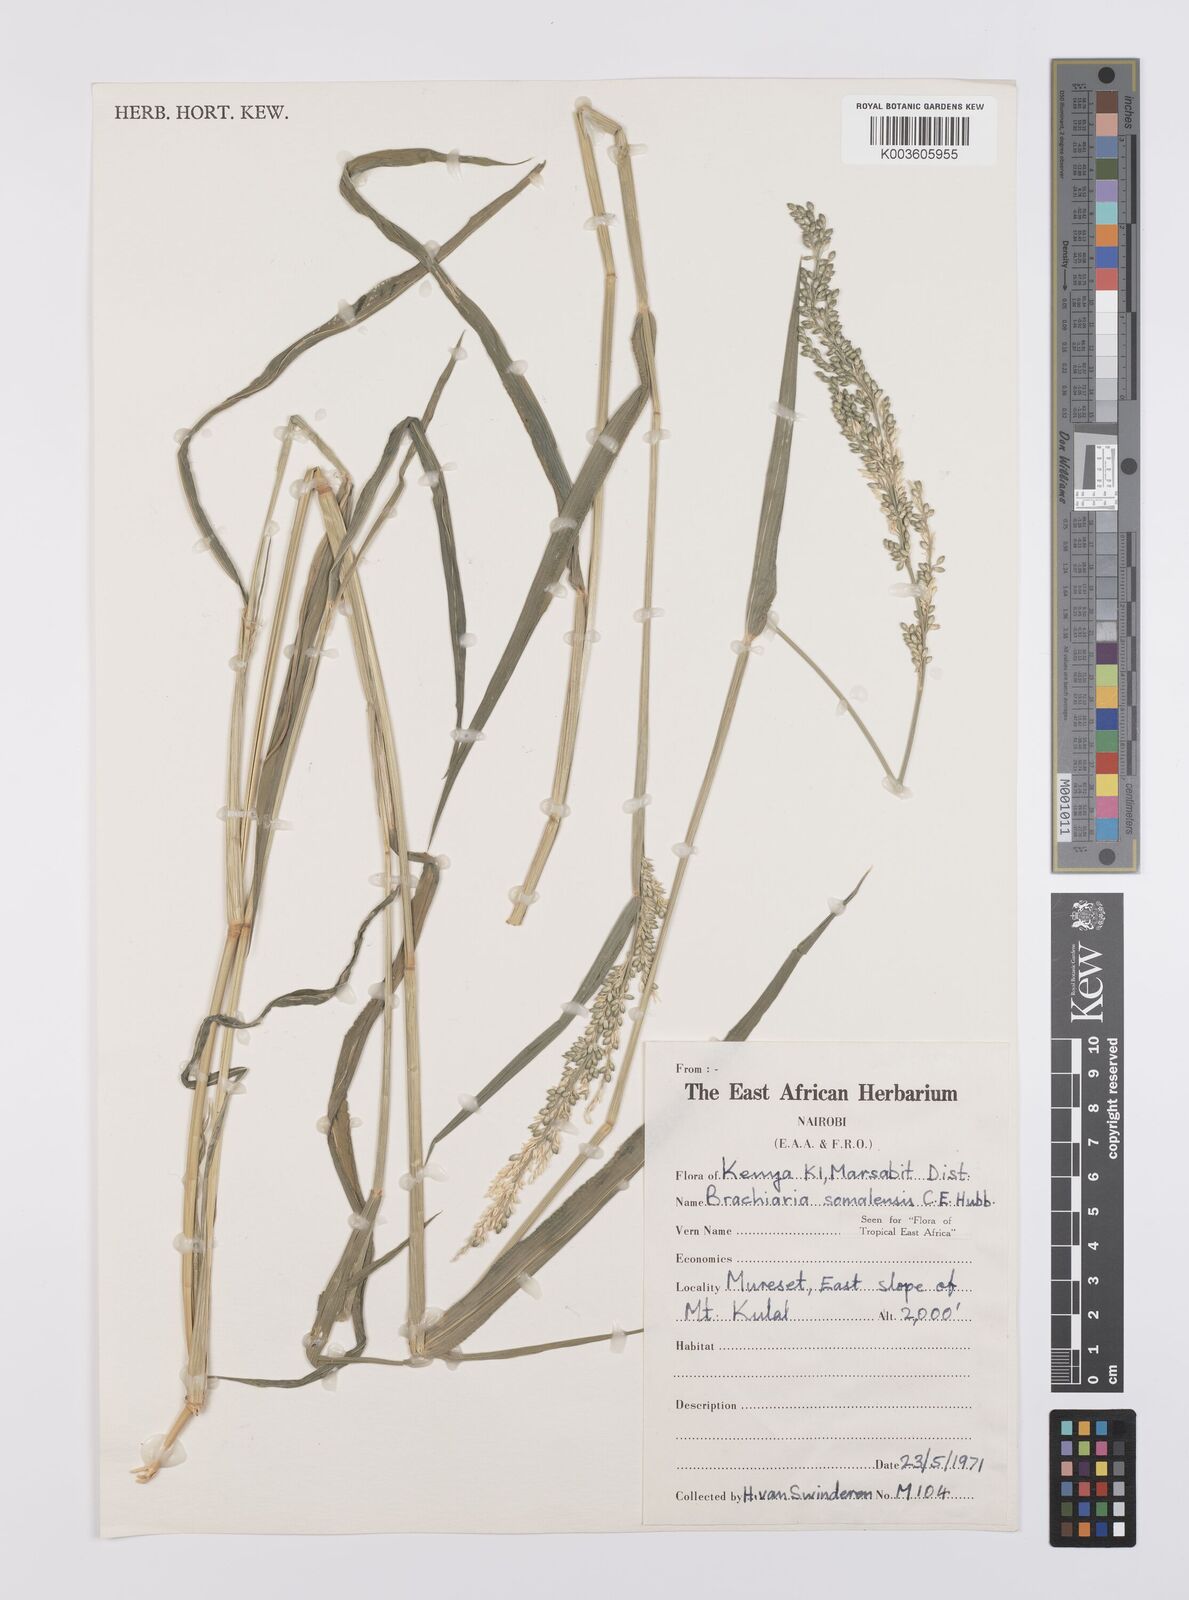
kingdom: Plantae
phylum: Tracheophyta
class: Liliopsida
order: Poales
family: Poaceae
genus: Urochloa
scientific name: Urochloa ovalis
